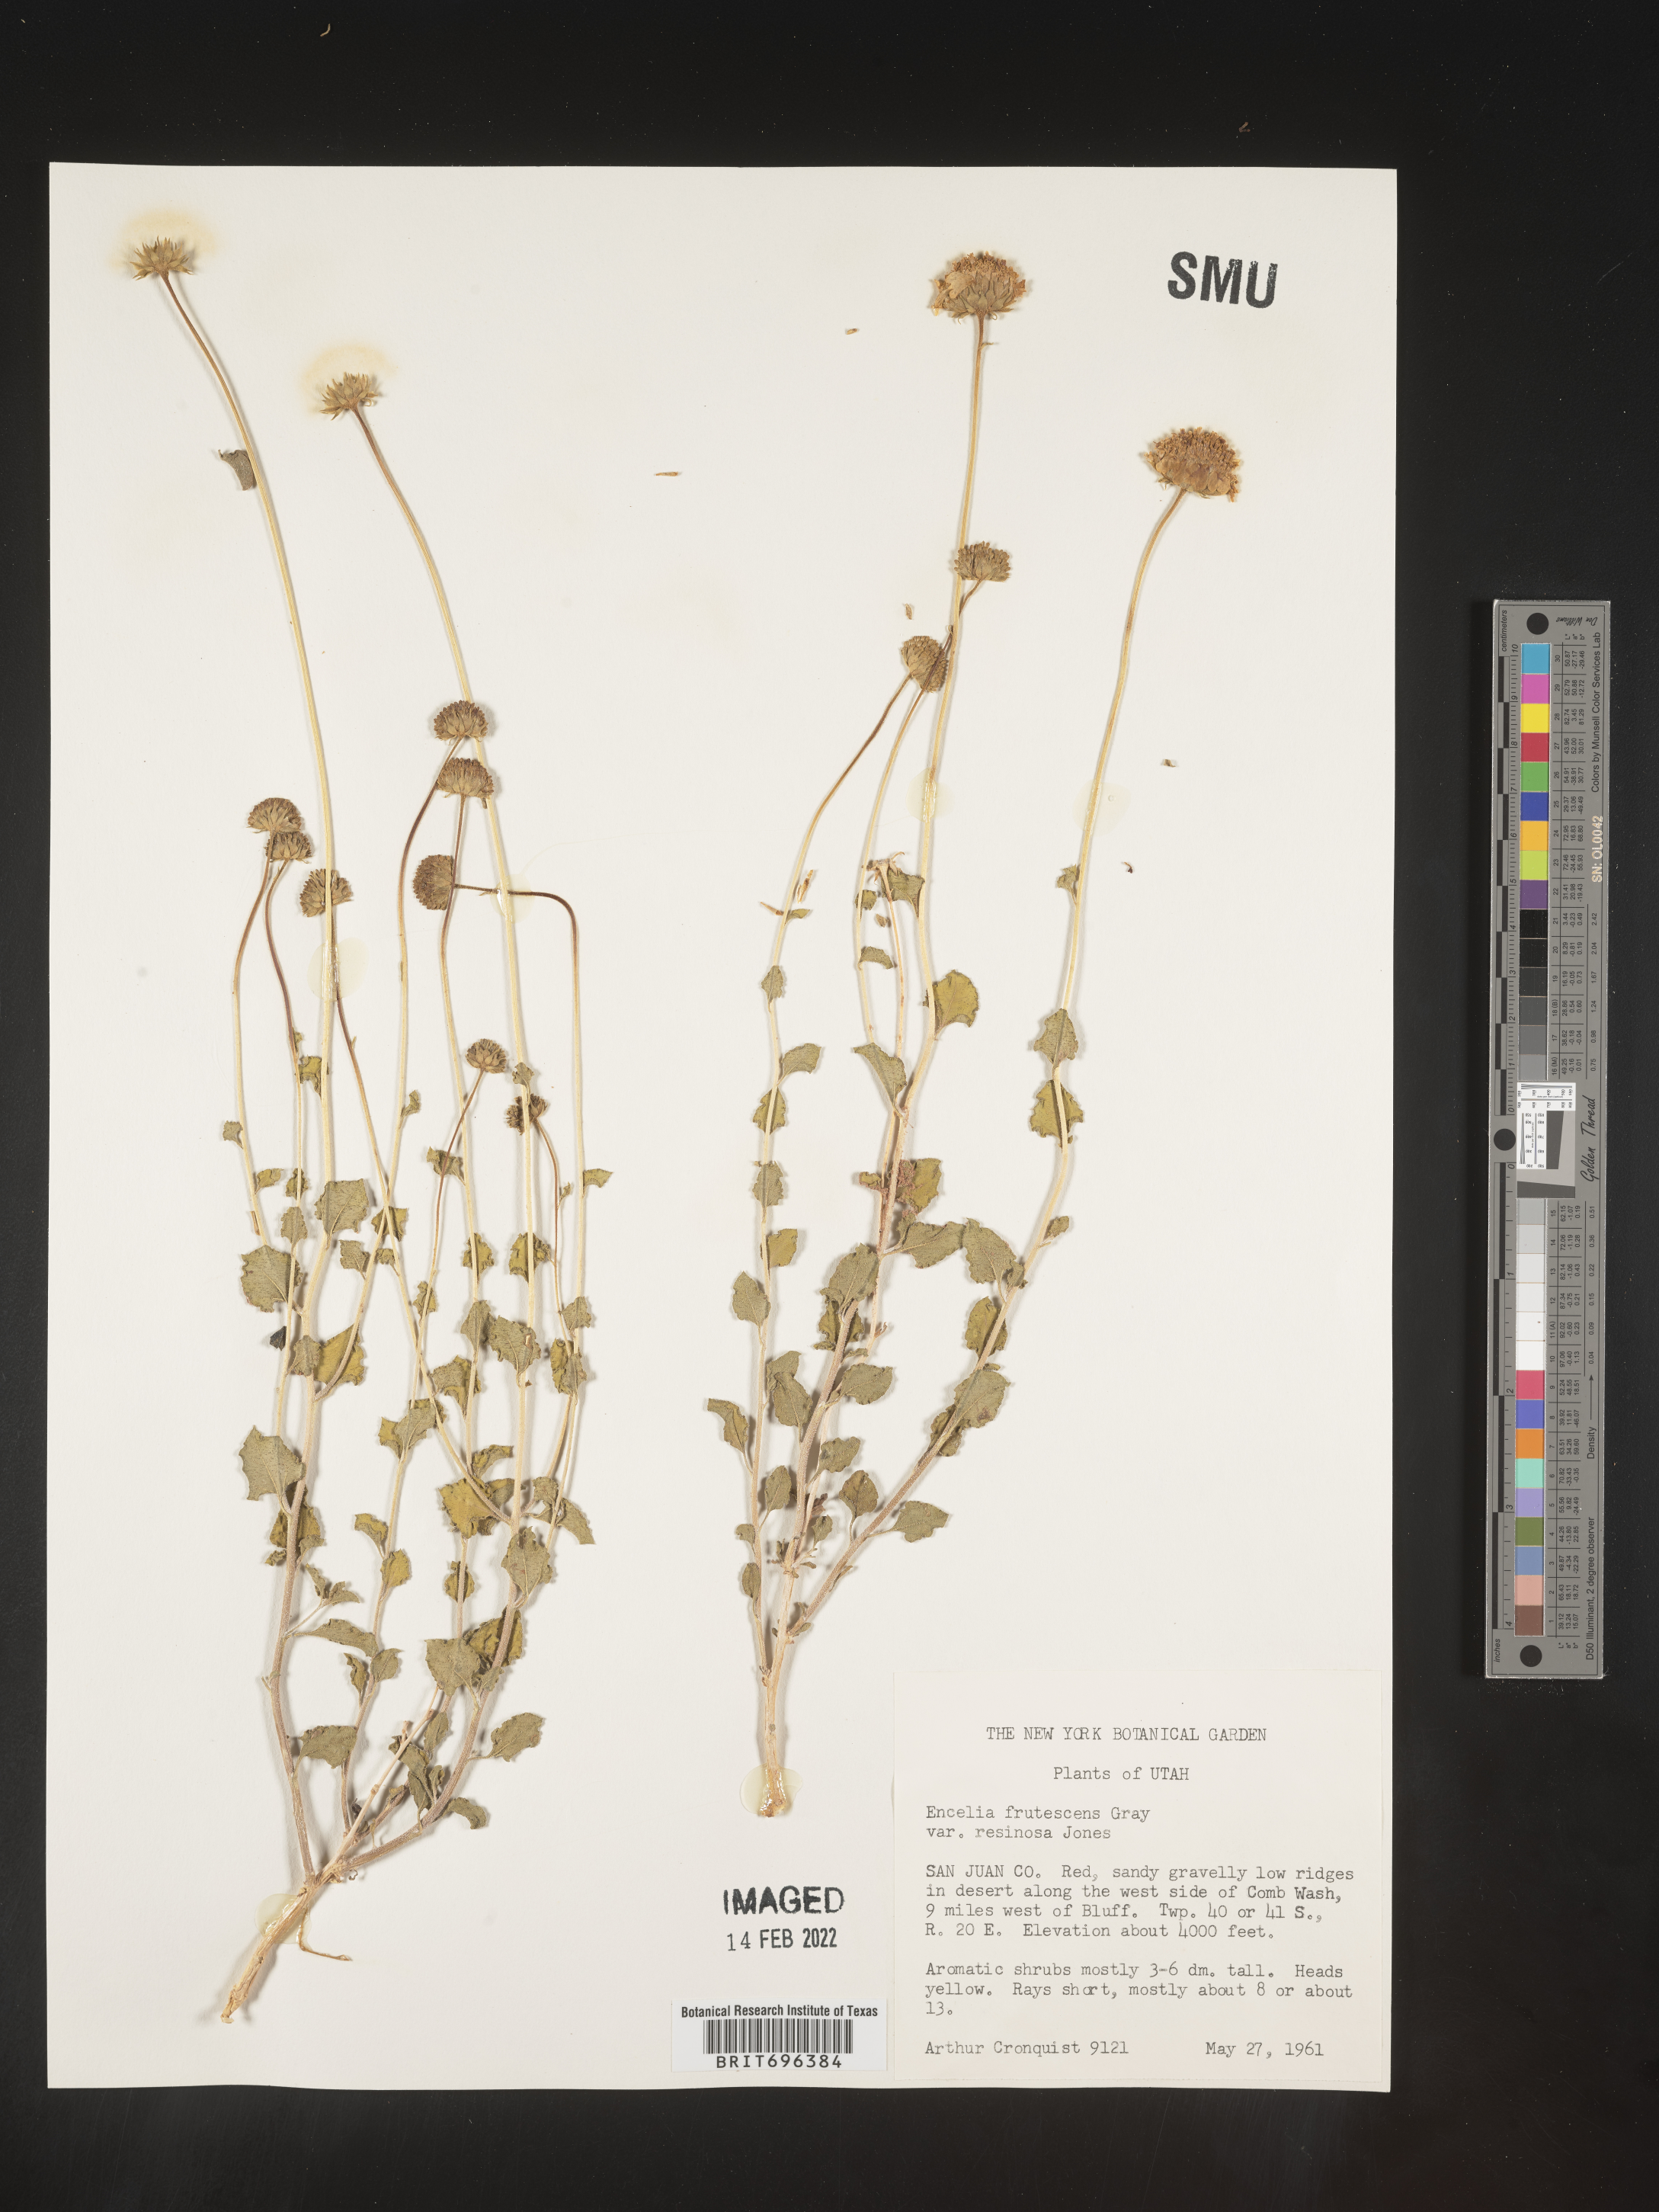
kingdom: Plantae
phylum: Tracheophyta
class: Magnoliopsida
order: Asterales
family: Asteraceae
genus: Encelia
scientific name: Encelia frutescens
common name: Bush encelia
